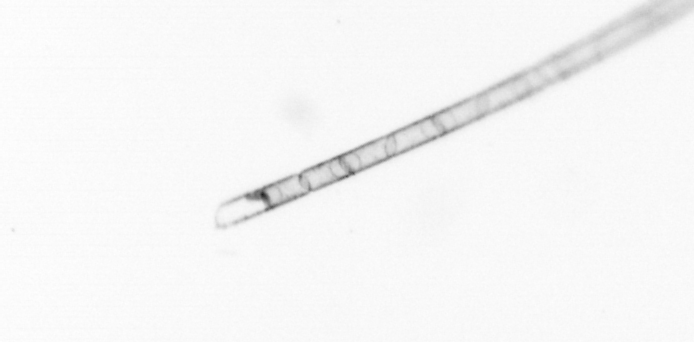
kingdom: Chromista
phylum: Ochrophyta
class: Bacillariophyceae
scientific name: Bacillariophyceae
